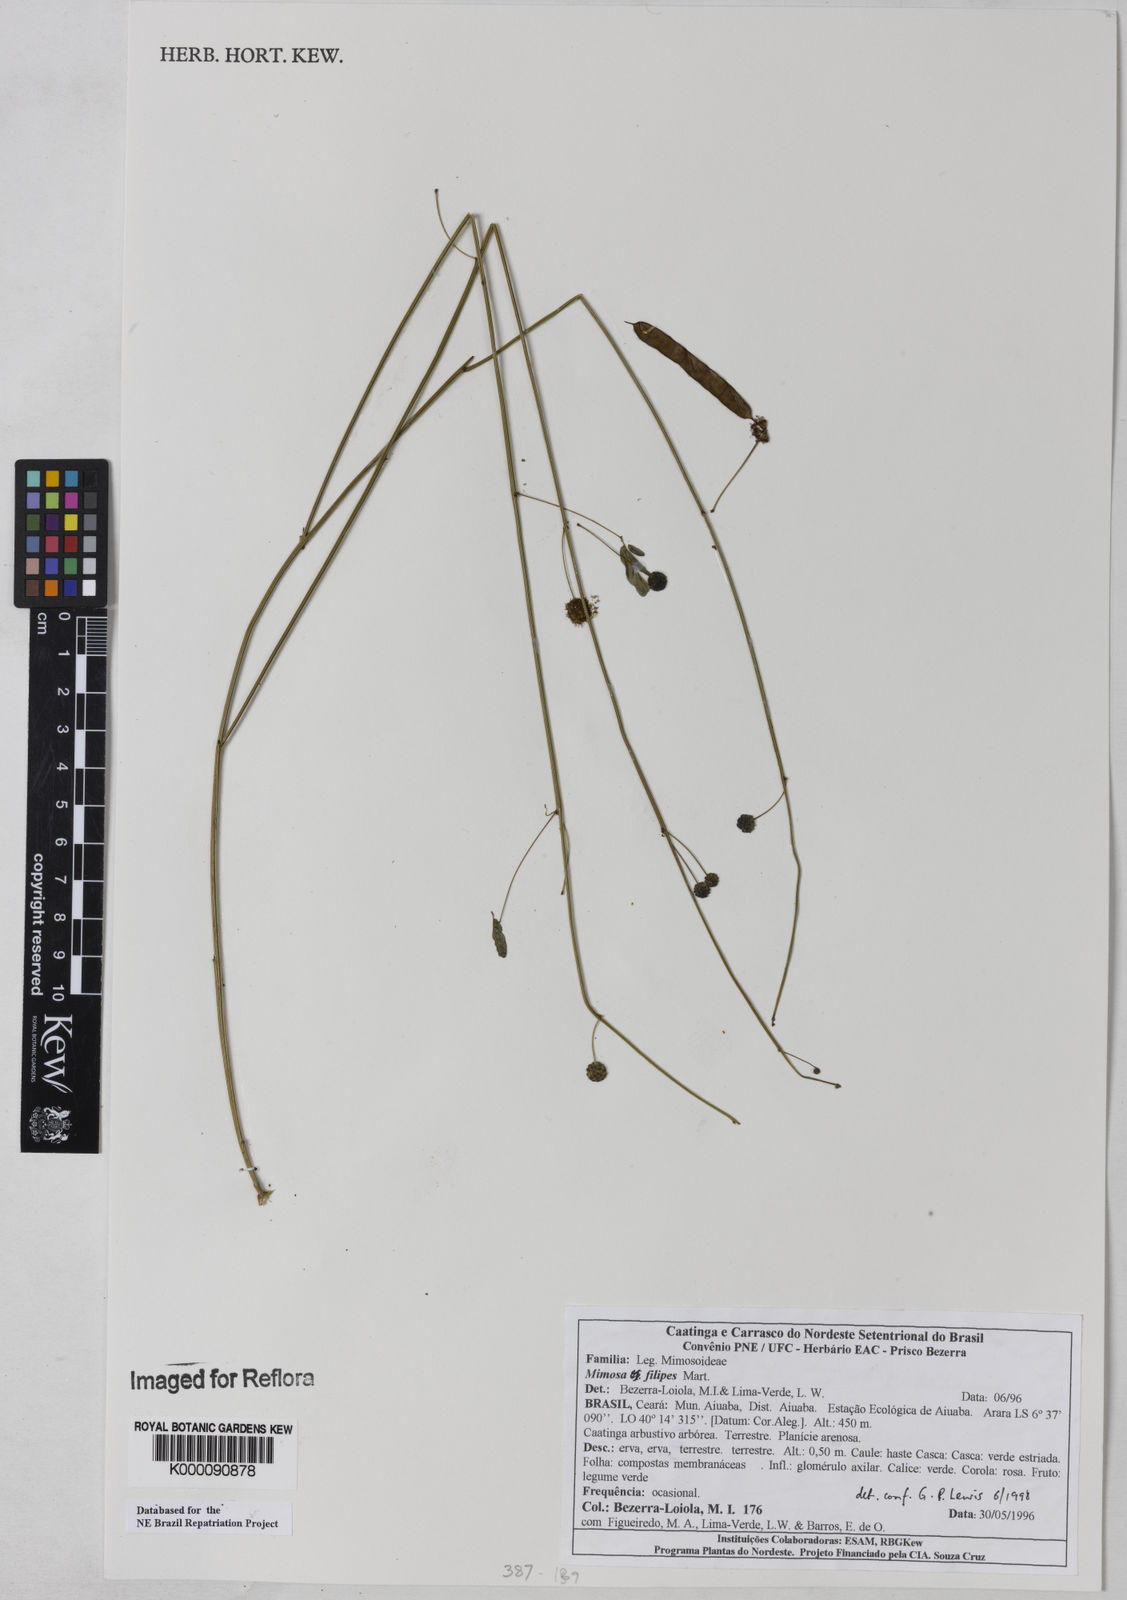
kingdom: Plantae
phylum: Tracheophyta
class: Magnoliopsida
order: Fabales
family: Fabaceae
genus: Mimosa
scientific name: Mimosa filipes
